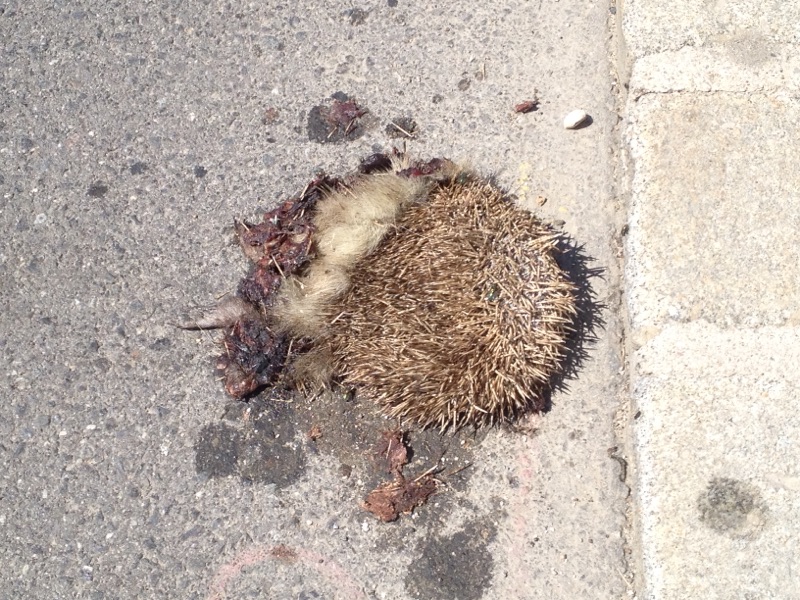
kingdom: Animalia
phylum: Chordata
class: Mammalia
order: Erinaceomorpha
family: Erinaceidae
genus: Erinaceus
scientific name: Erinaceus
